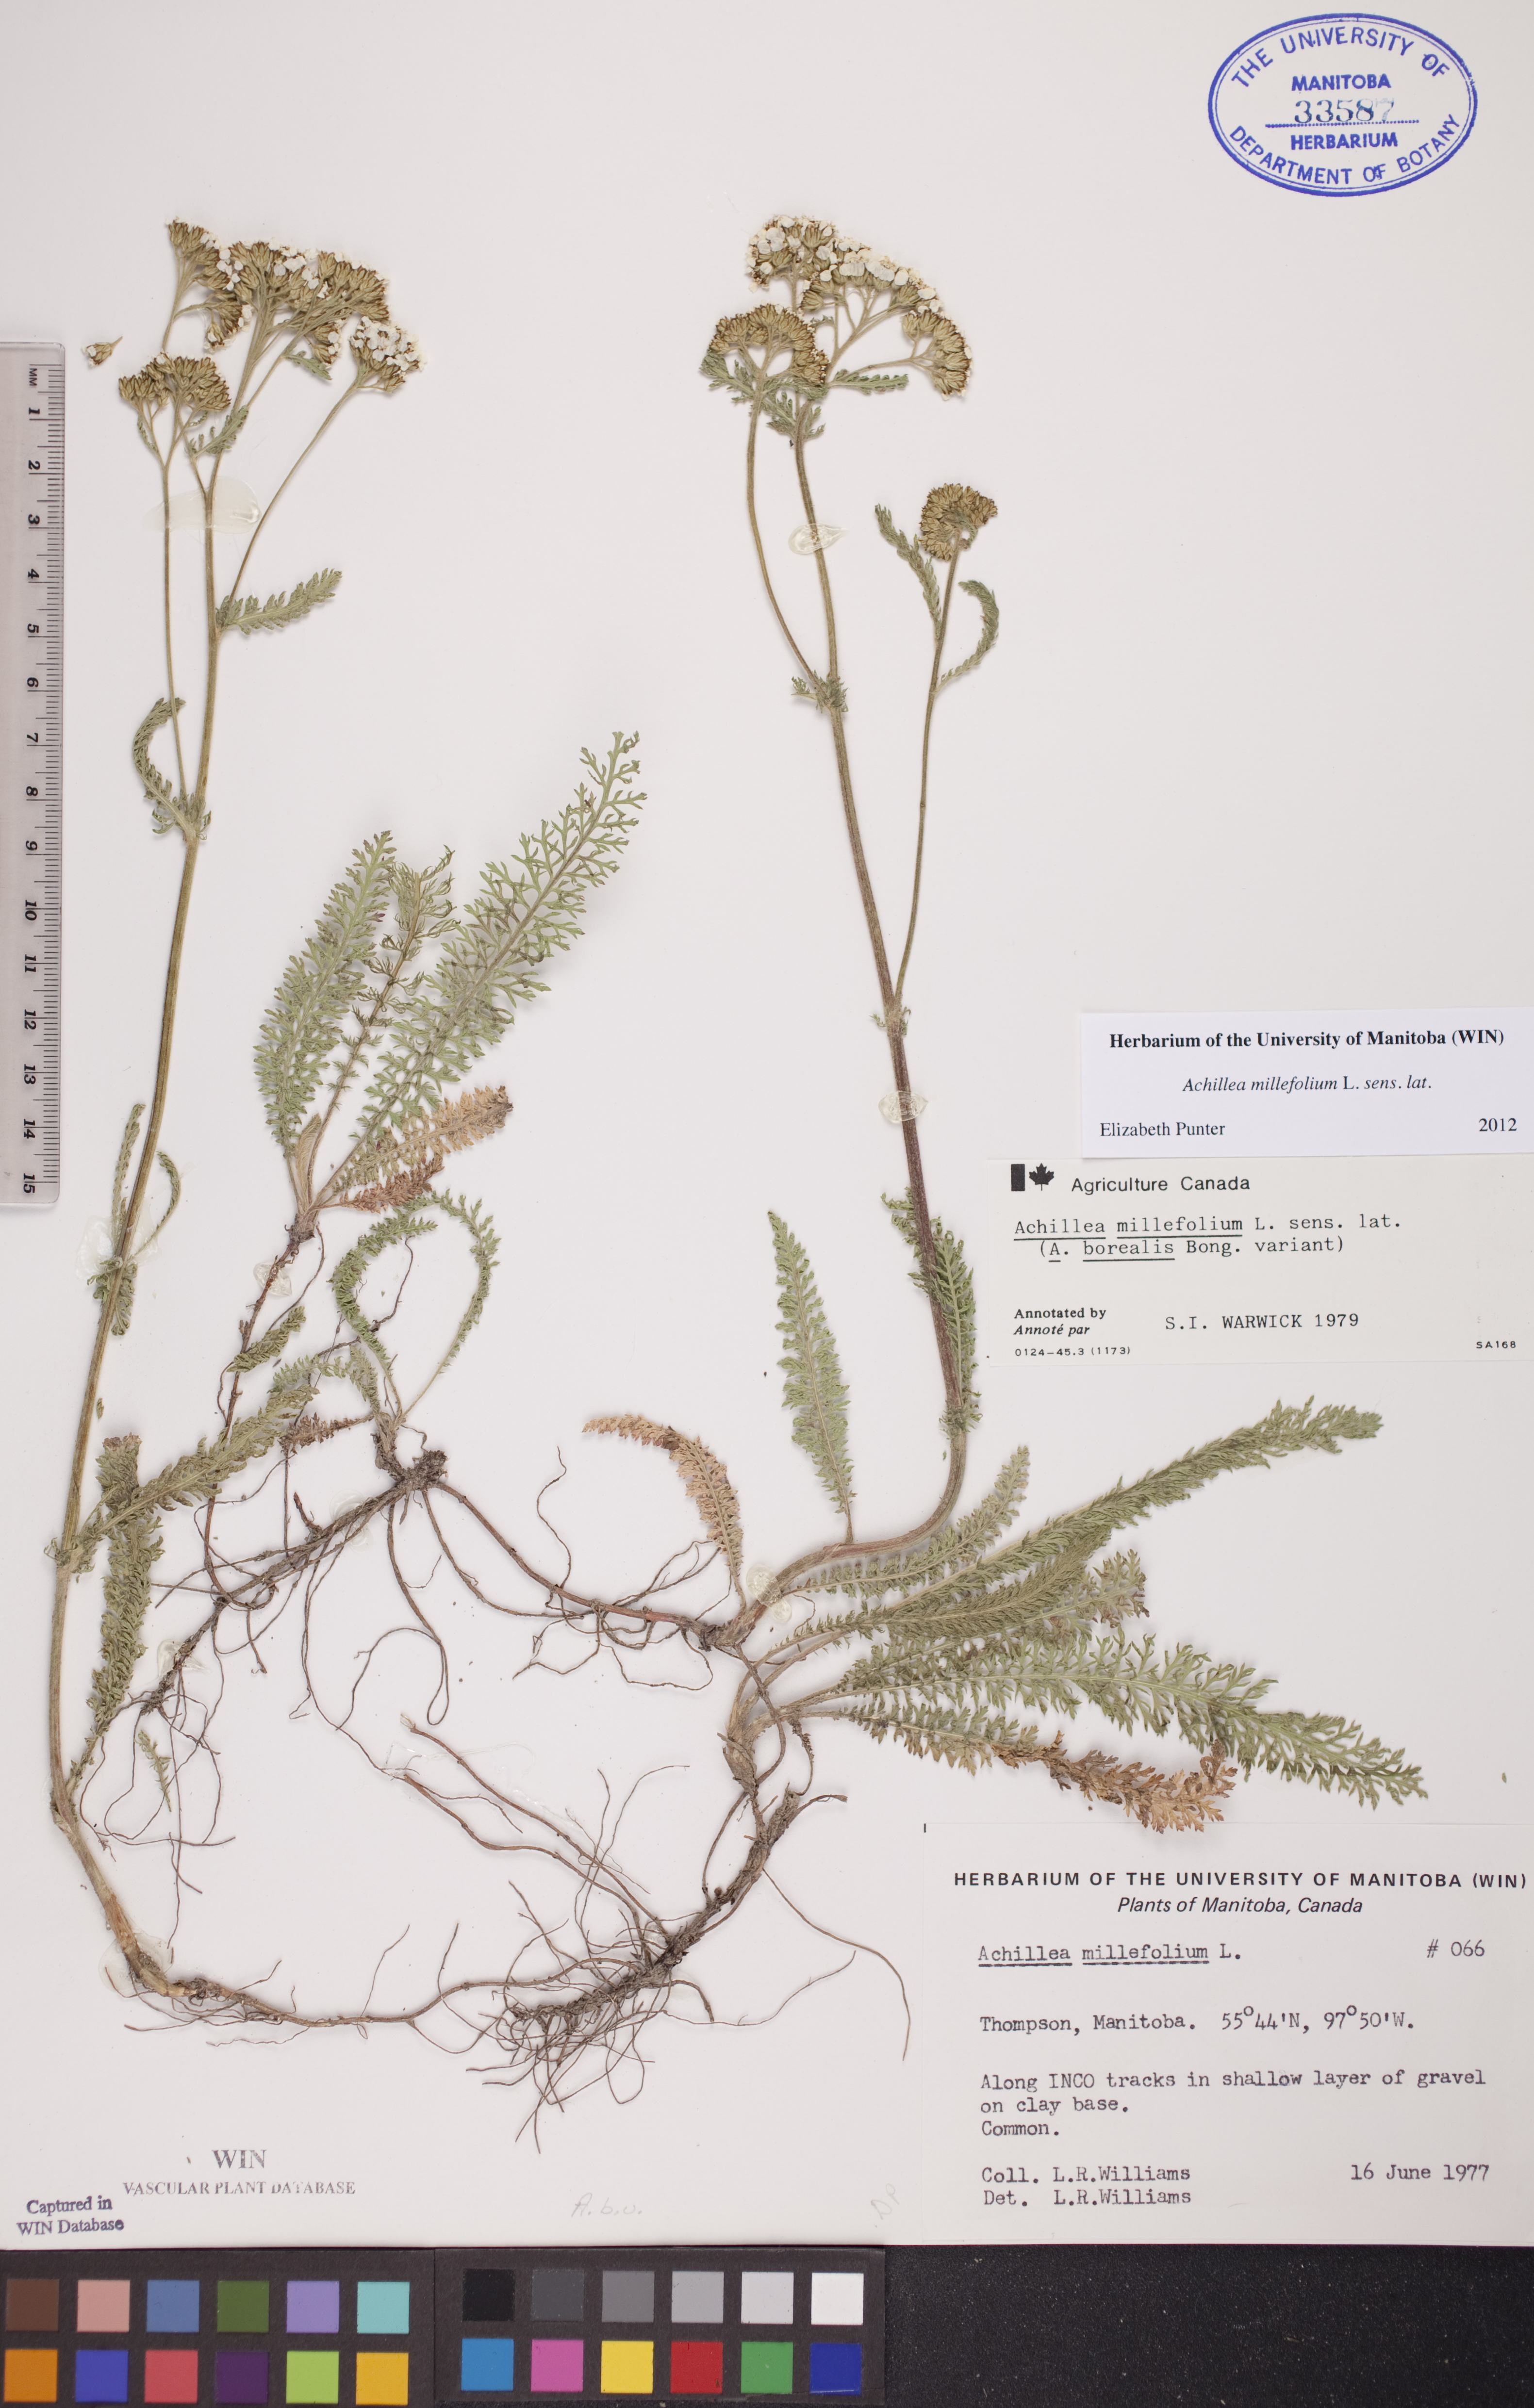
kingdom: Plantae
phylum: Tracheophyta
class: Magnoliopsida
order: Asterales
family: Asteraceae
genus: Achillea
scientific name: Achillea millefolium
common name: Yarrow
